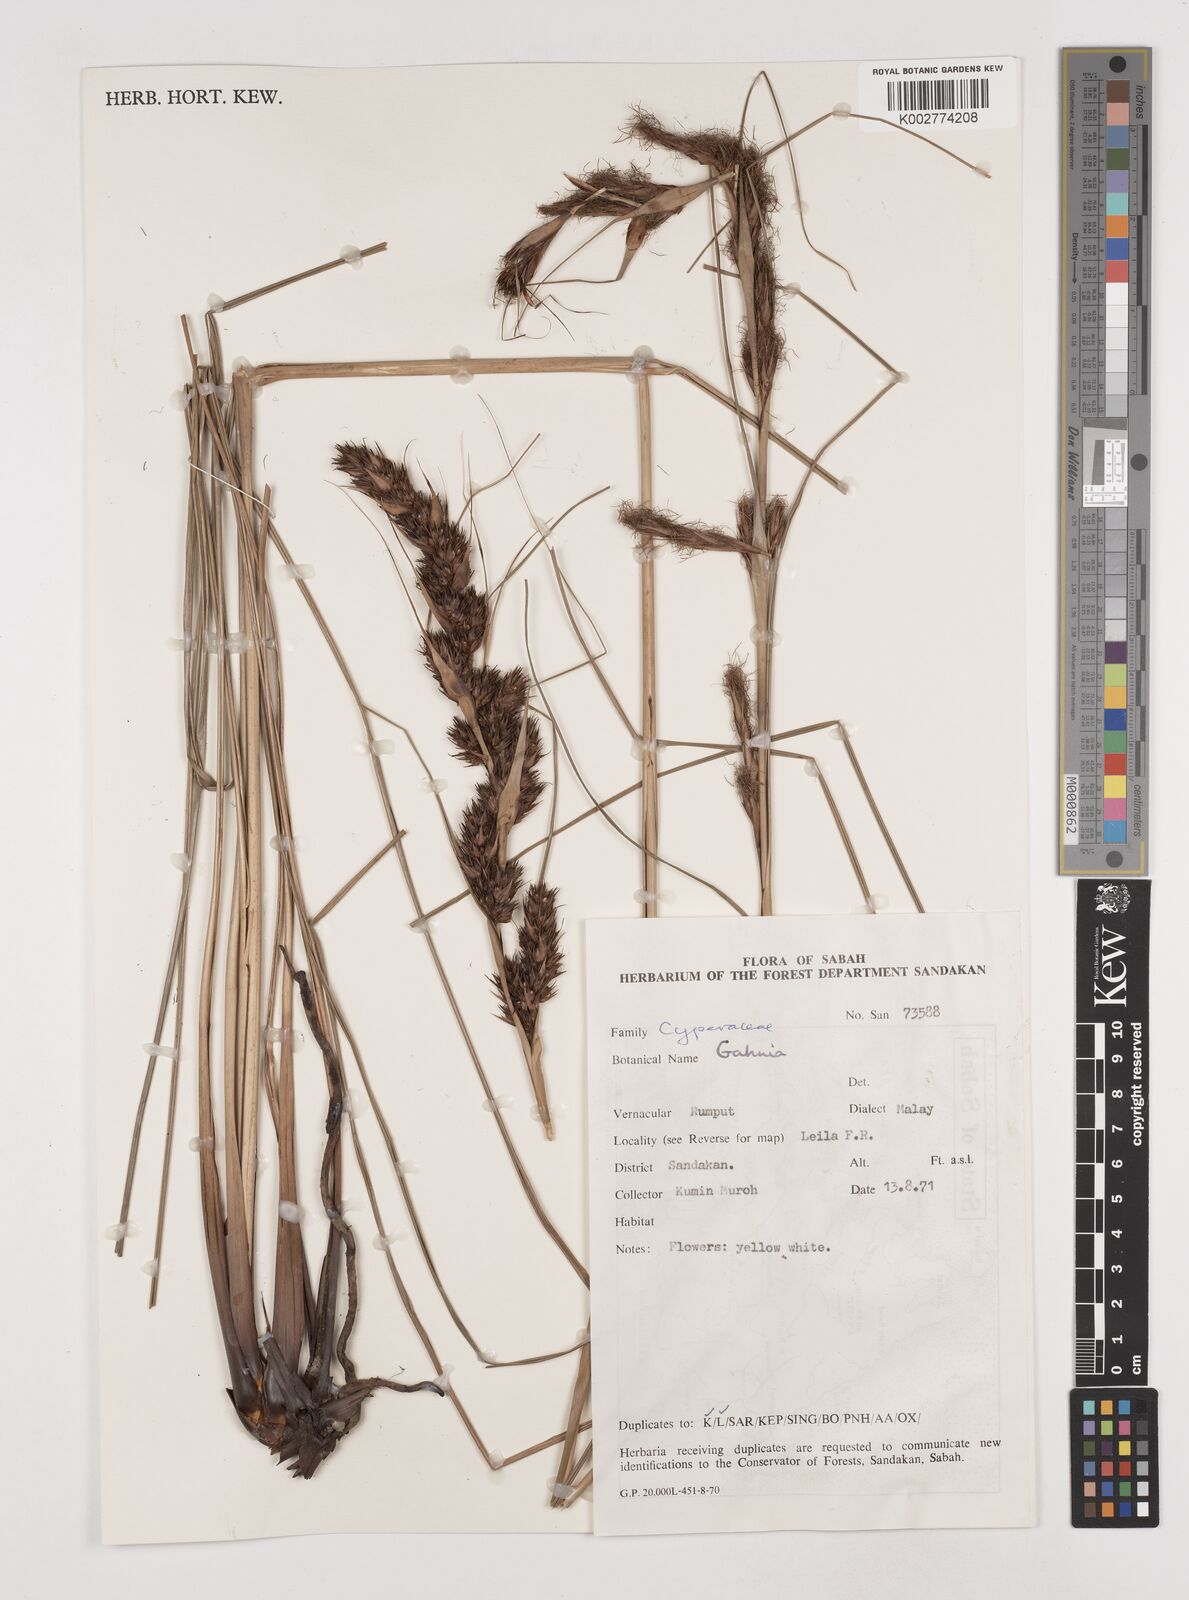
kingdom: Plantae
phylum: Tracheophyta
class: Liliopsida
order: Poales
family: Cyperaceae
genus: Gahnia
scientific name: Gahnia
